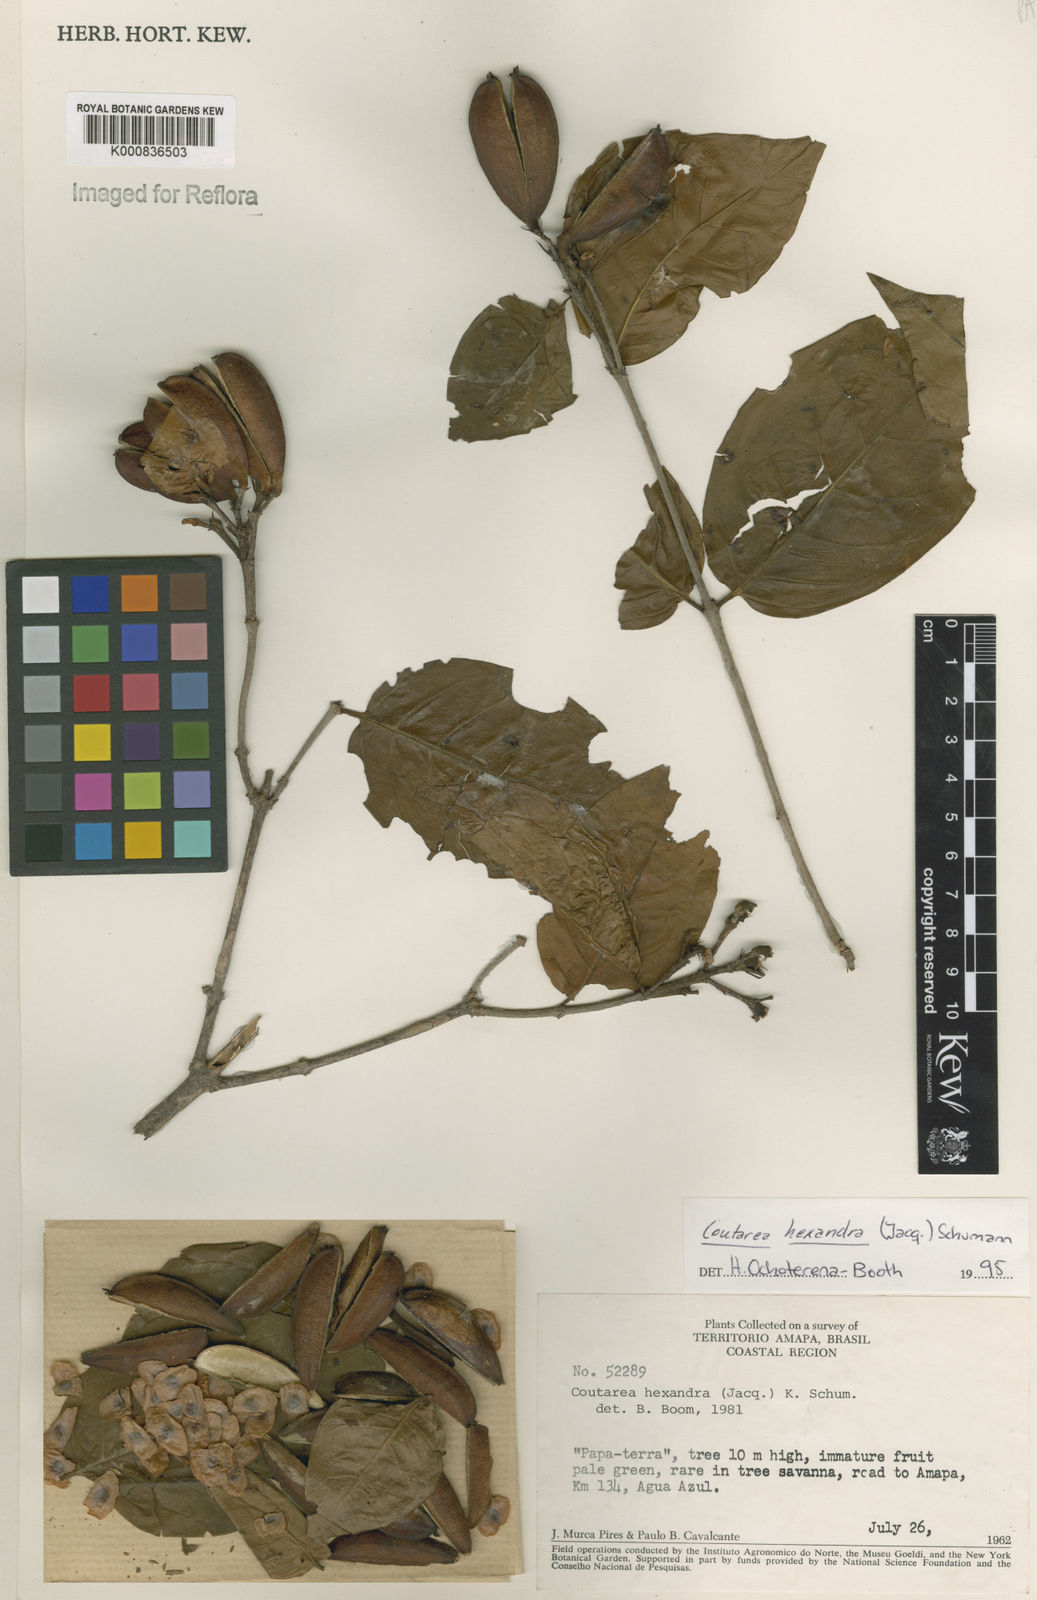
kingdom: Plantae
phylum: Tracheophyta
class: Magnoliopsida
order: Gentianales
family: Rubiaceae
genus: Coutarea
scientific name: Coutarea hexandra
